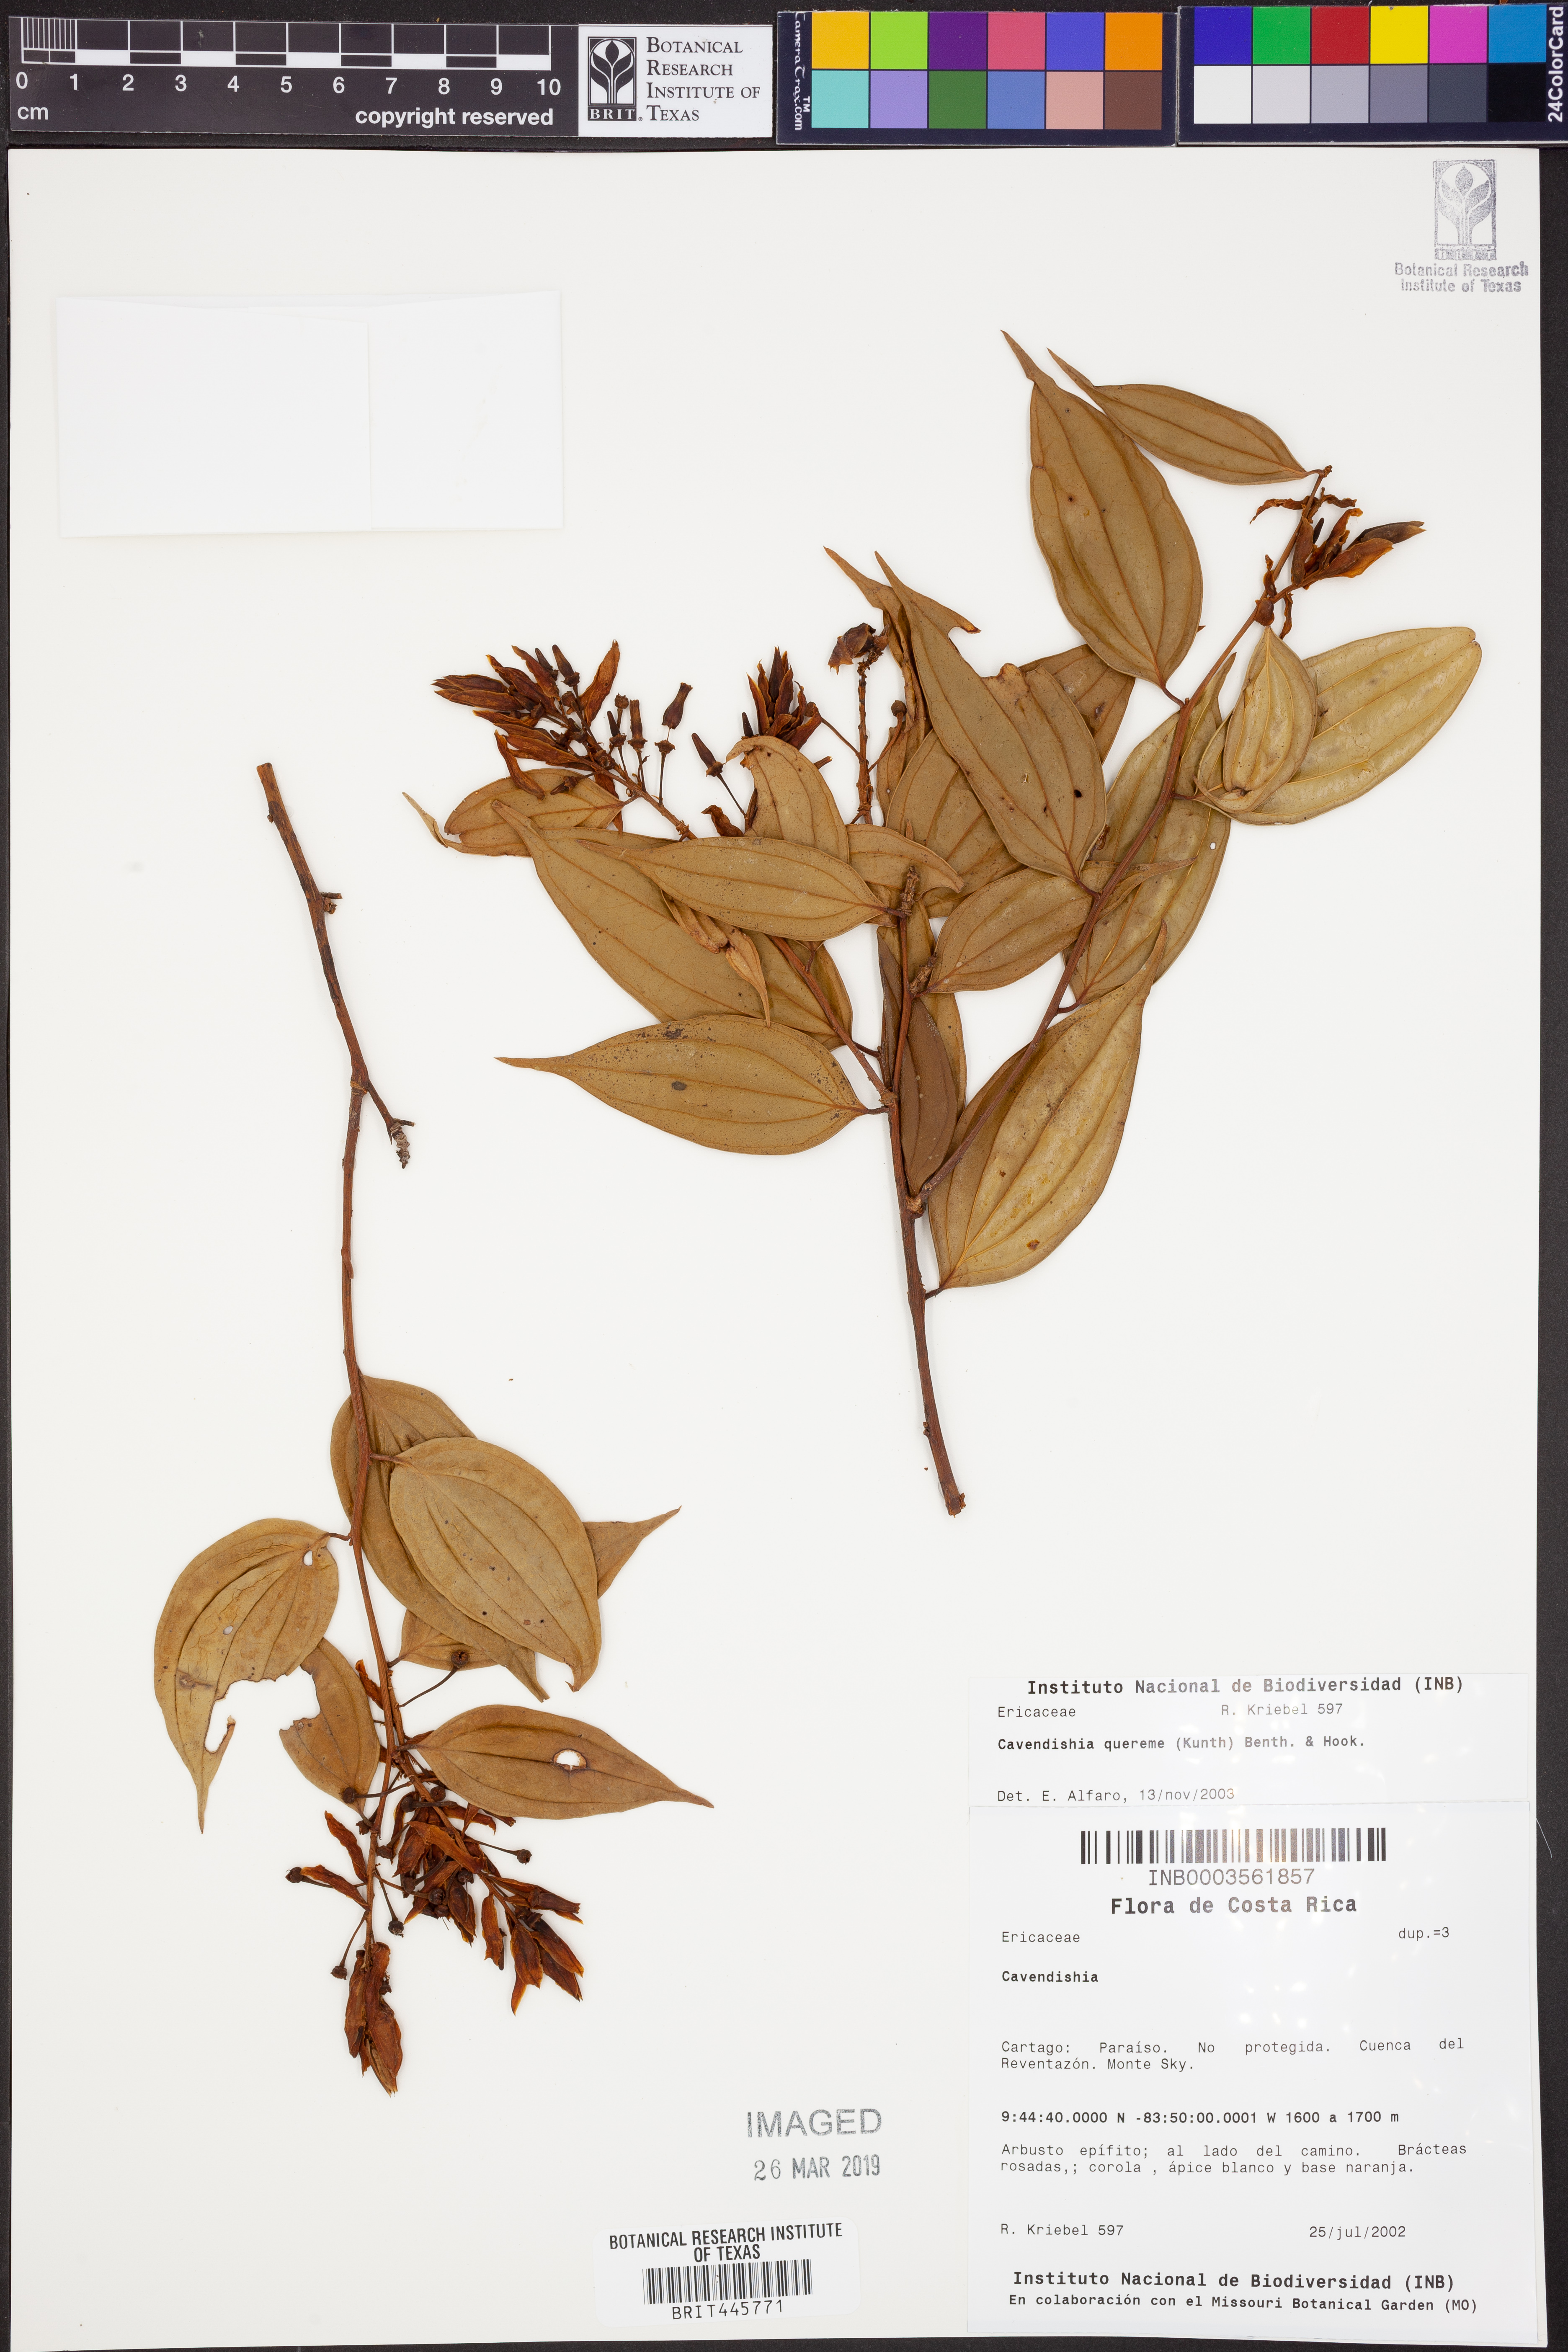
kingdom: Plantae
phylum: Tracheophyta
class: Magnoliopsida
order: Ericales
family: Ericaceae
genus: Cavendishia
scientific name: Cavendishia quereme
